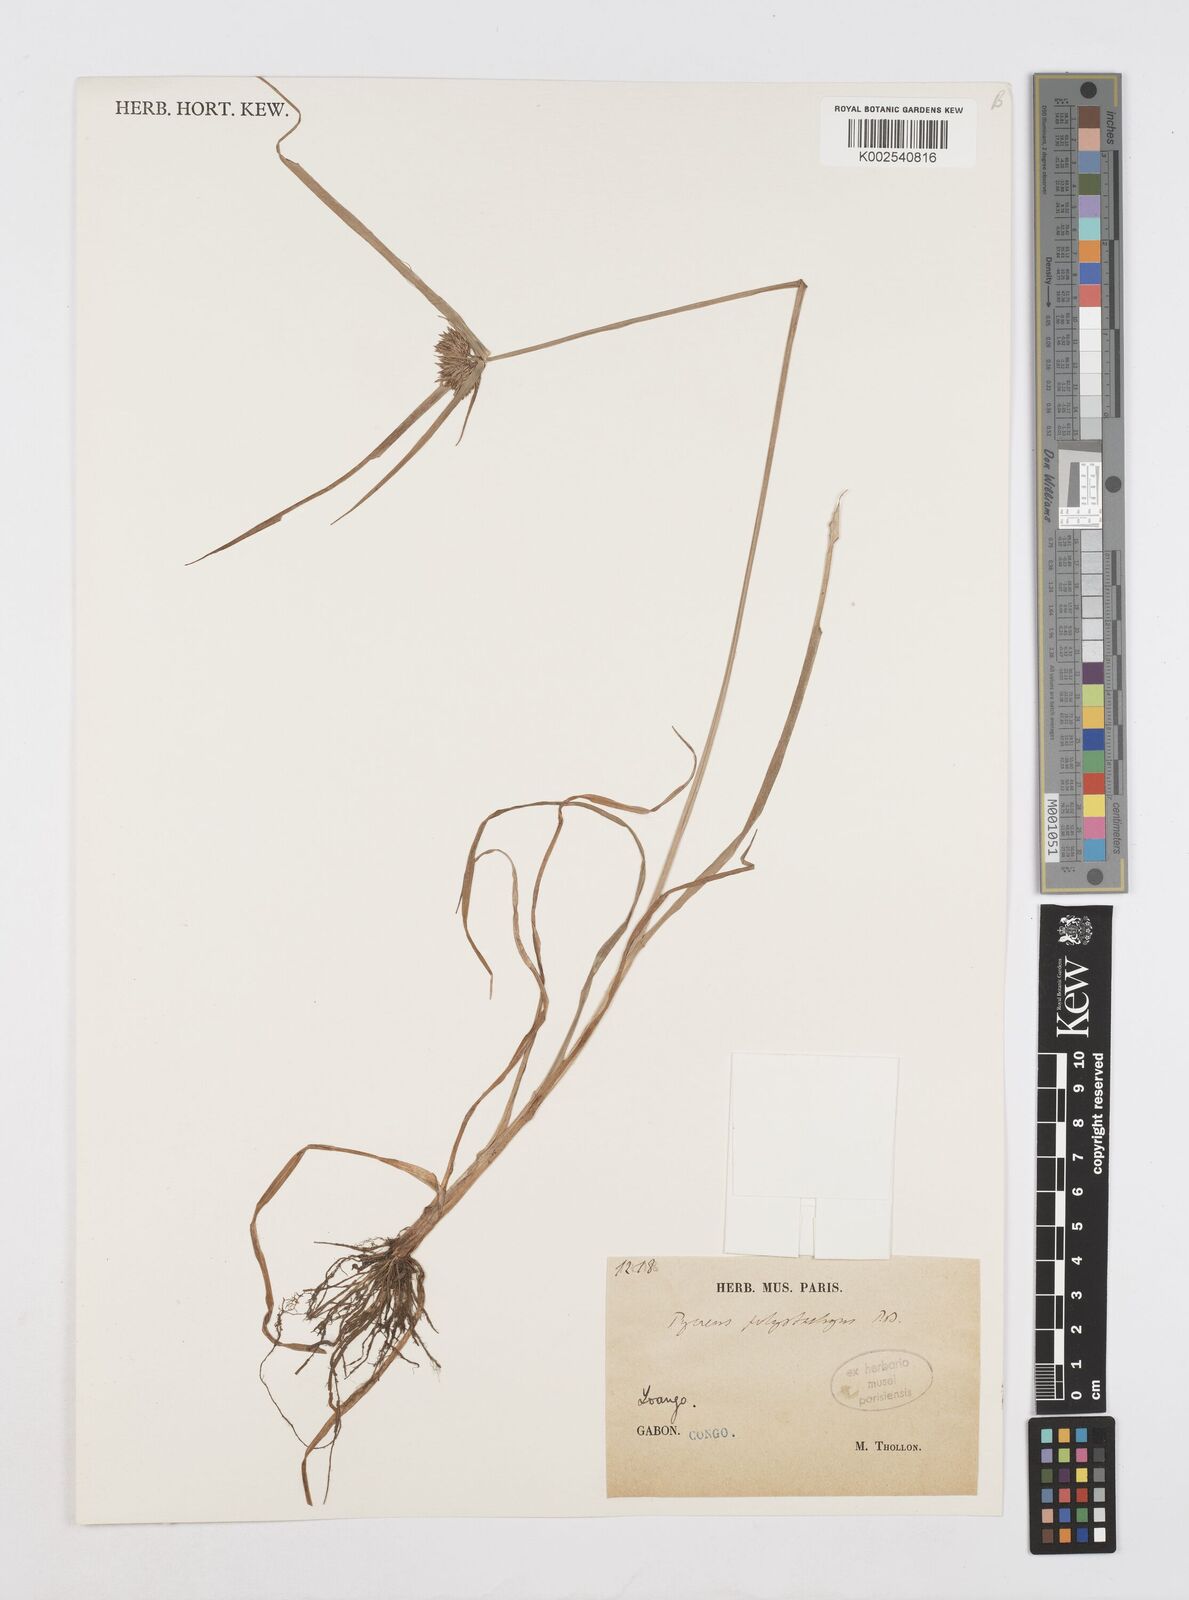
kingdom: Plantae
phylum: Tracheophyta
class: Liliopsida
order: Poales
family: Cyperaceae
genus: Cyperus
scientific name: Cyperus polystachyos
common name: Bunchy flat sedge
